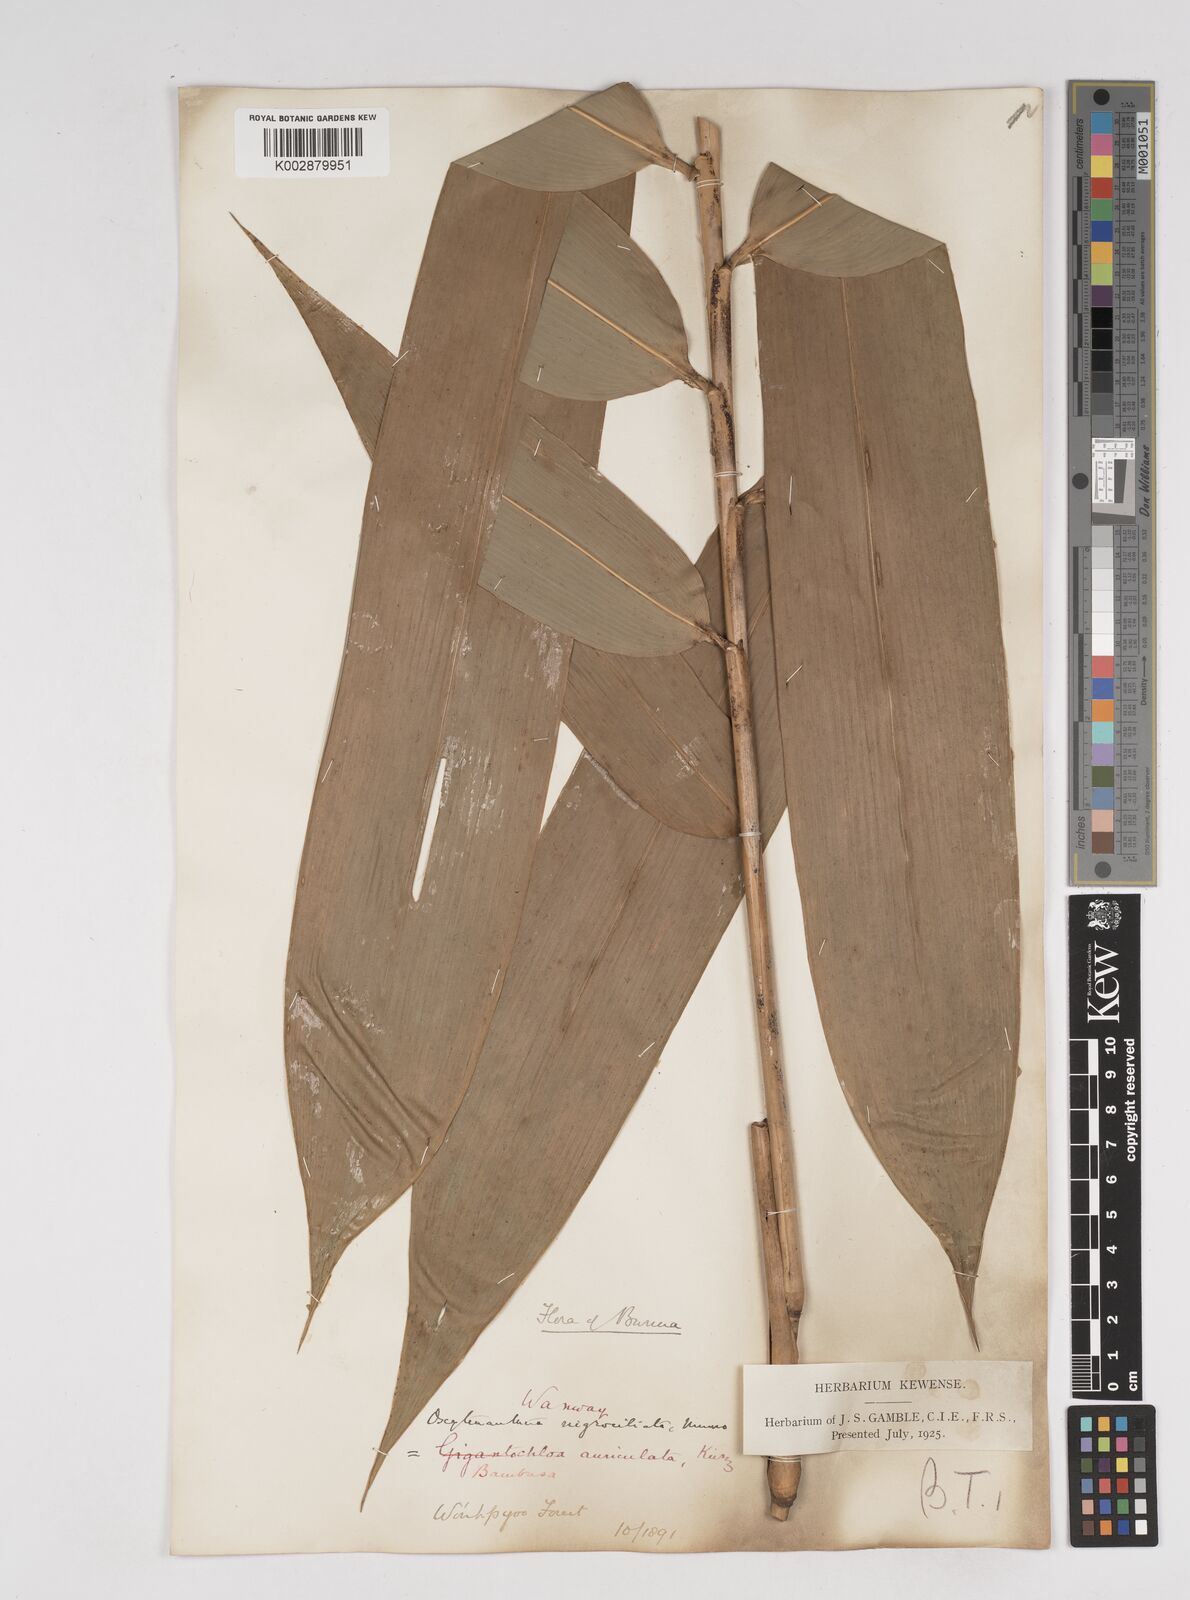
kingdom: Plantae
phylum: Tracheophyta
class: Liliopsida
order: Poales
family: Poaceae
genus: Gigantochloa
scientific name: Gigantochloa nigrociliata
